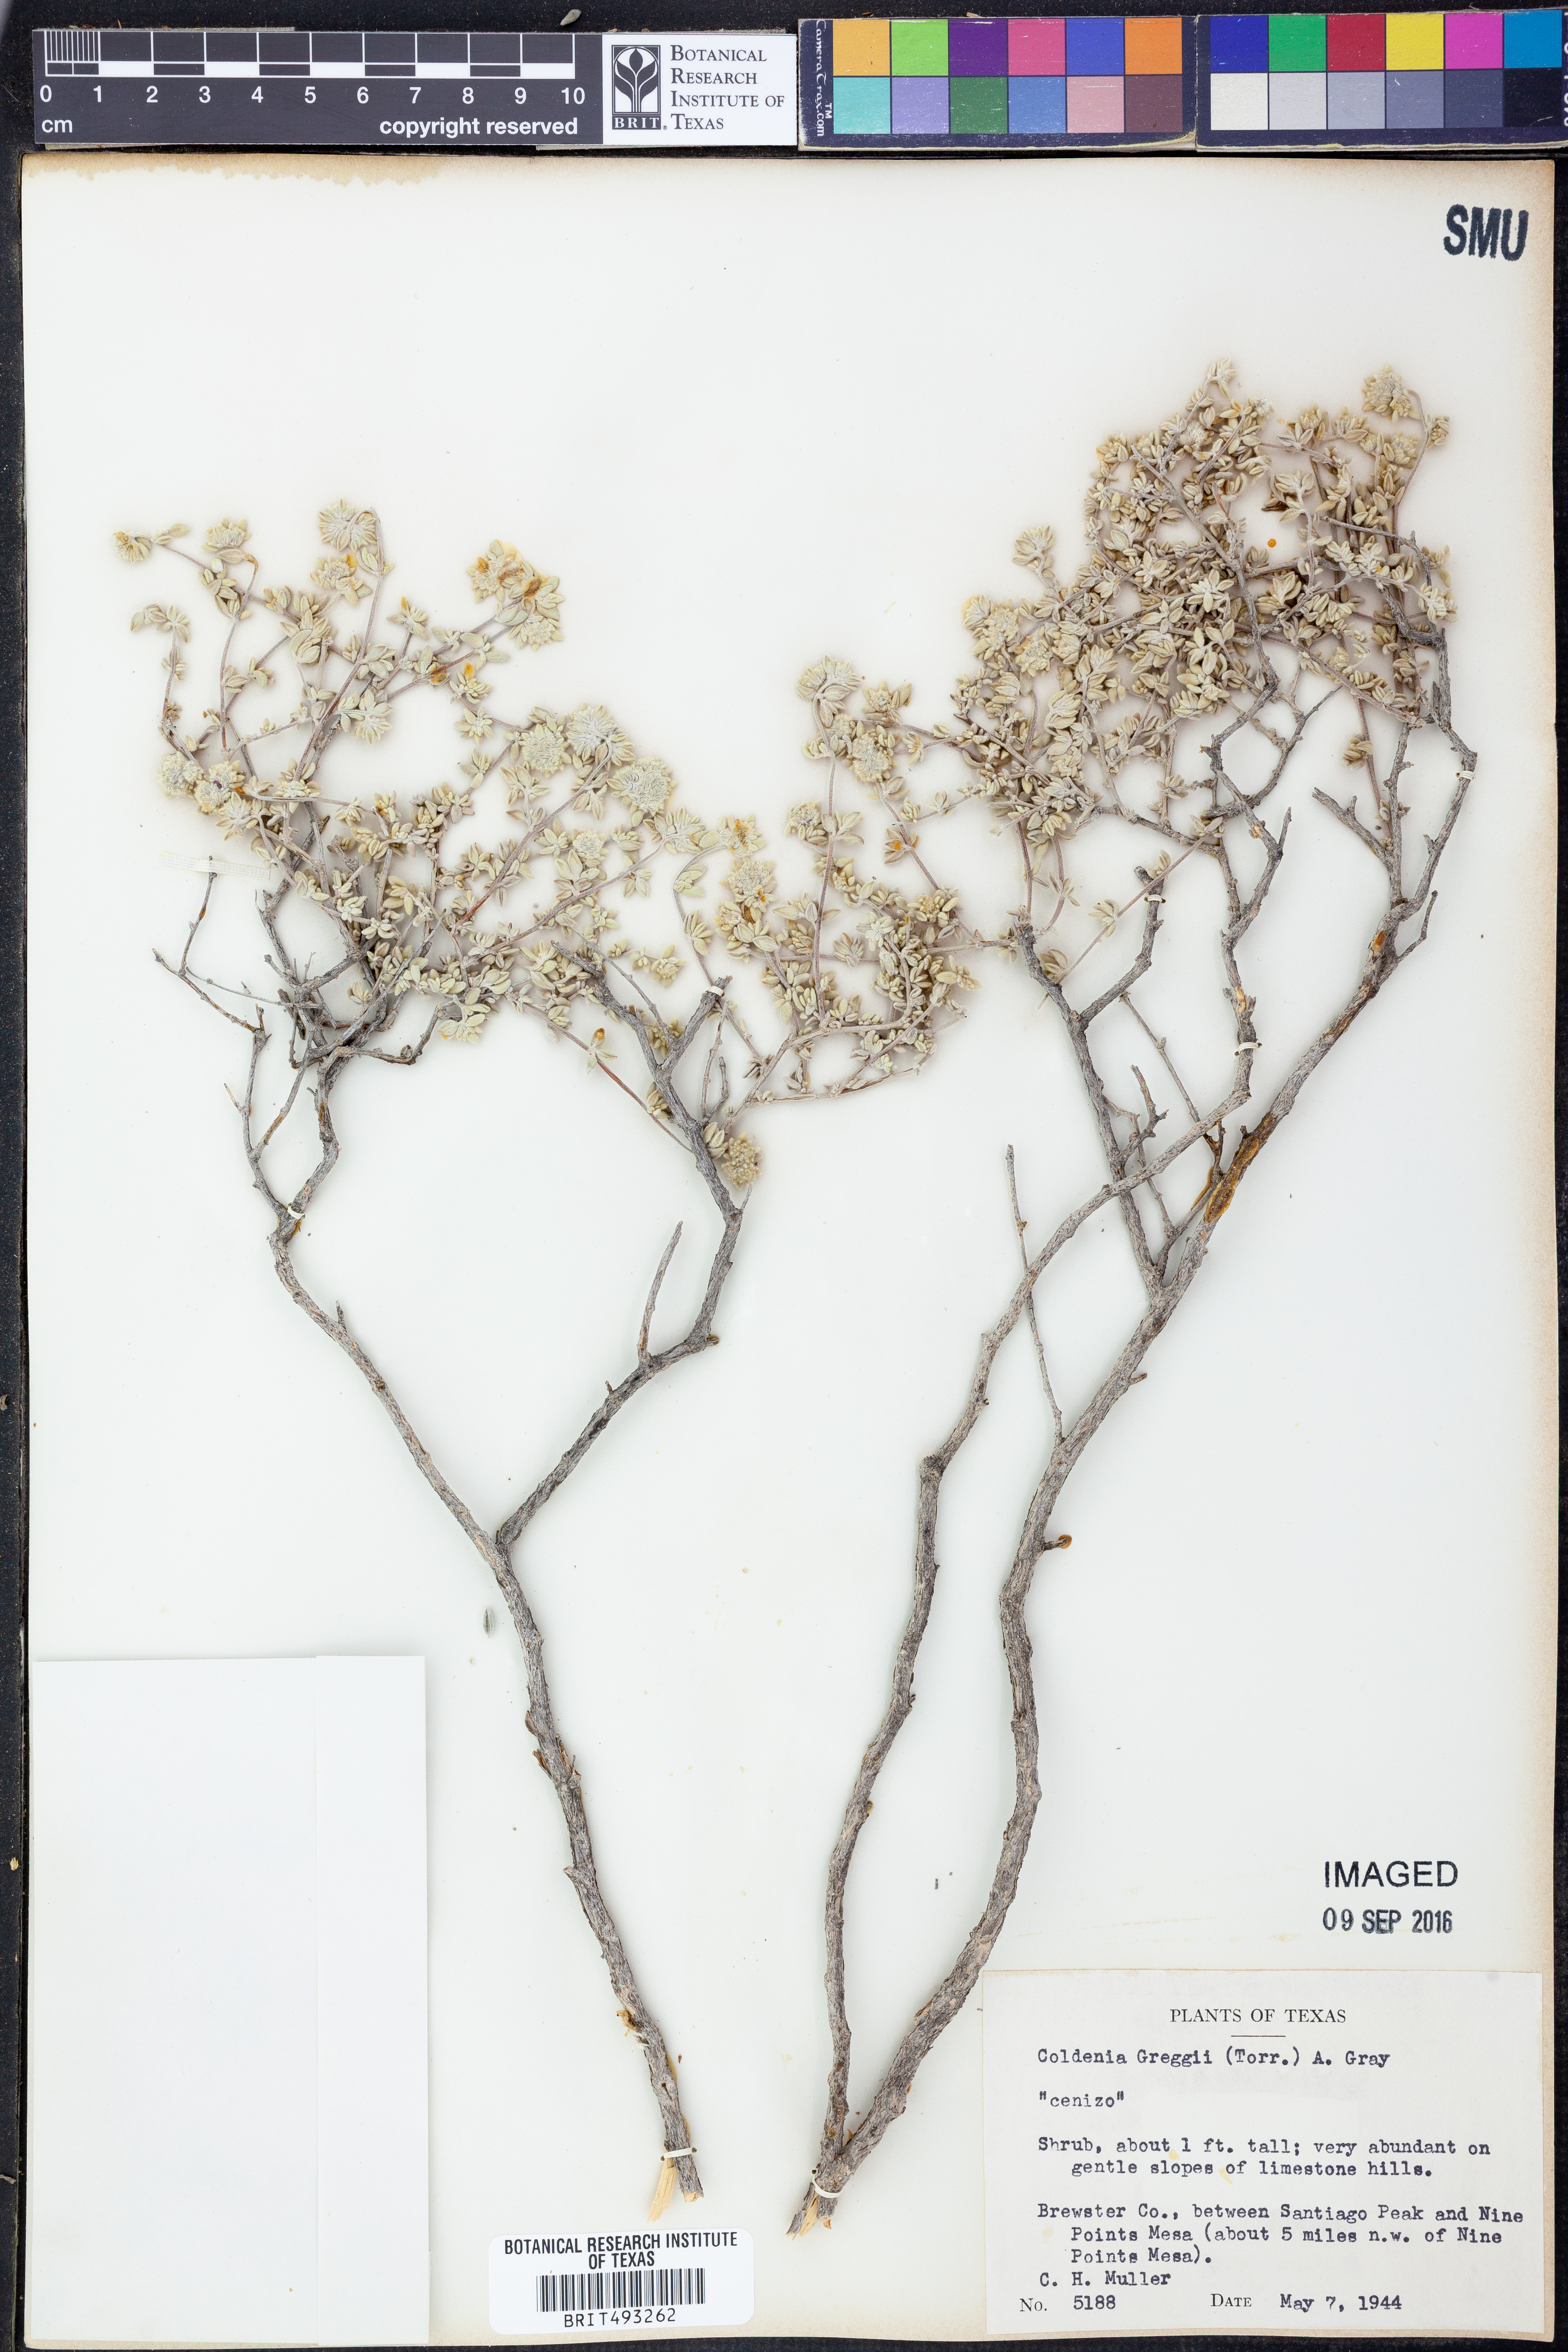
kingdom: Plantae
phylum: Tracheophyta
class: Magnoliopsida
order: Boraginales
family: Ehretiaceae
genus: Tiquilia
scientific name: Tiquilia greggii
